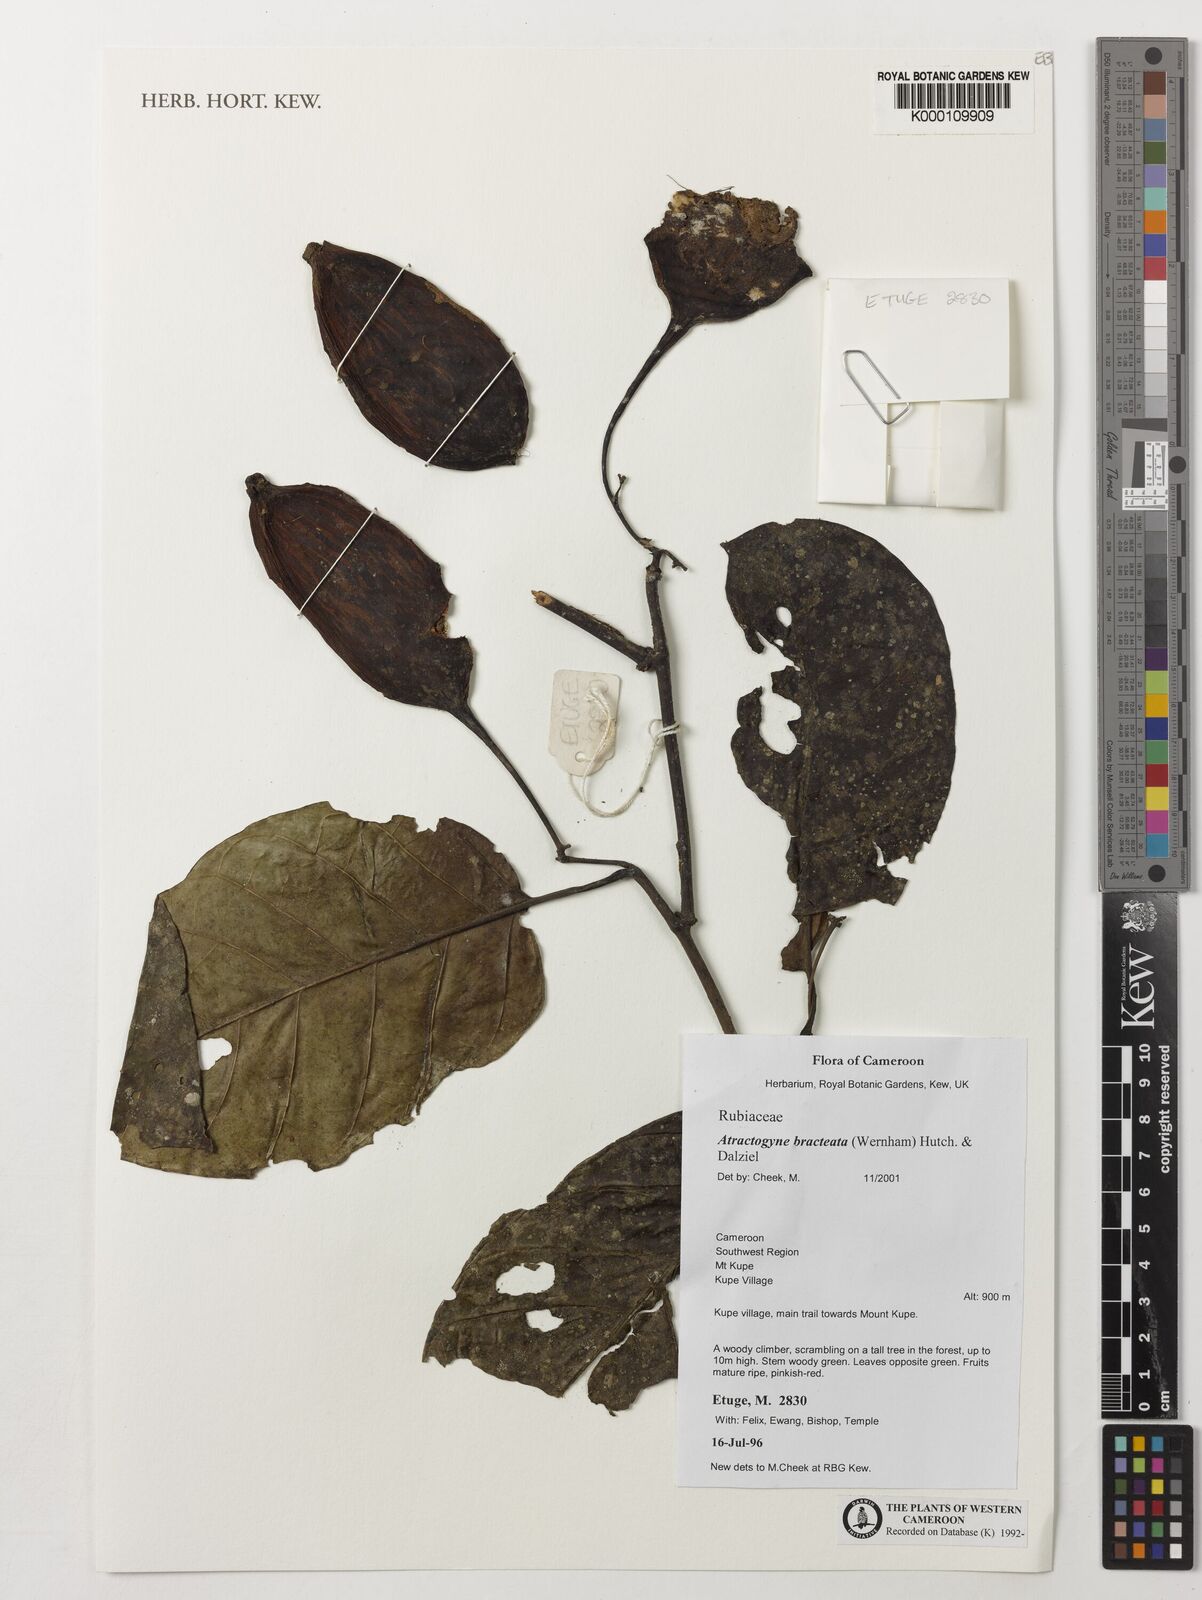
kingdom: Plantae
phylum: Tracheophyta
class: Magnoliopsida
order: Gentianales
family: Rubiaceae
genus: Atractogyne
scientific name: Atractogyne bracteata
